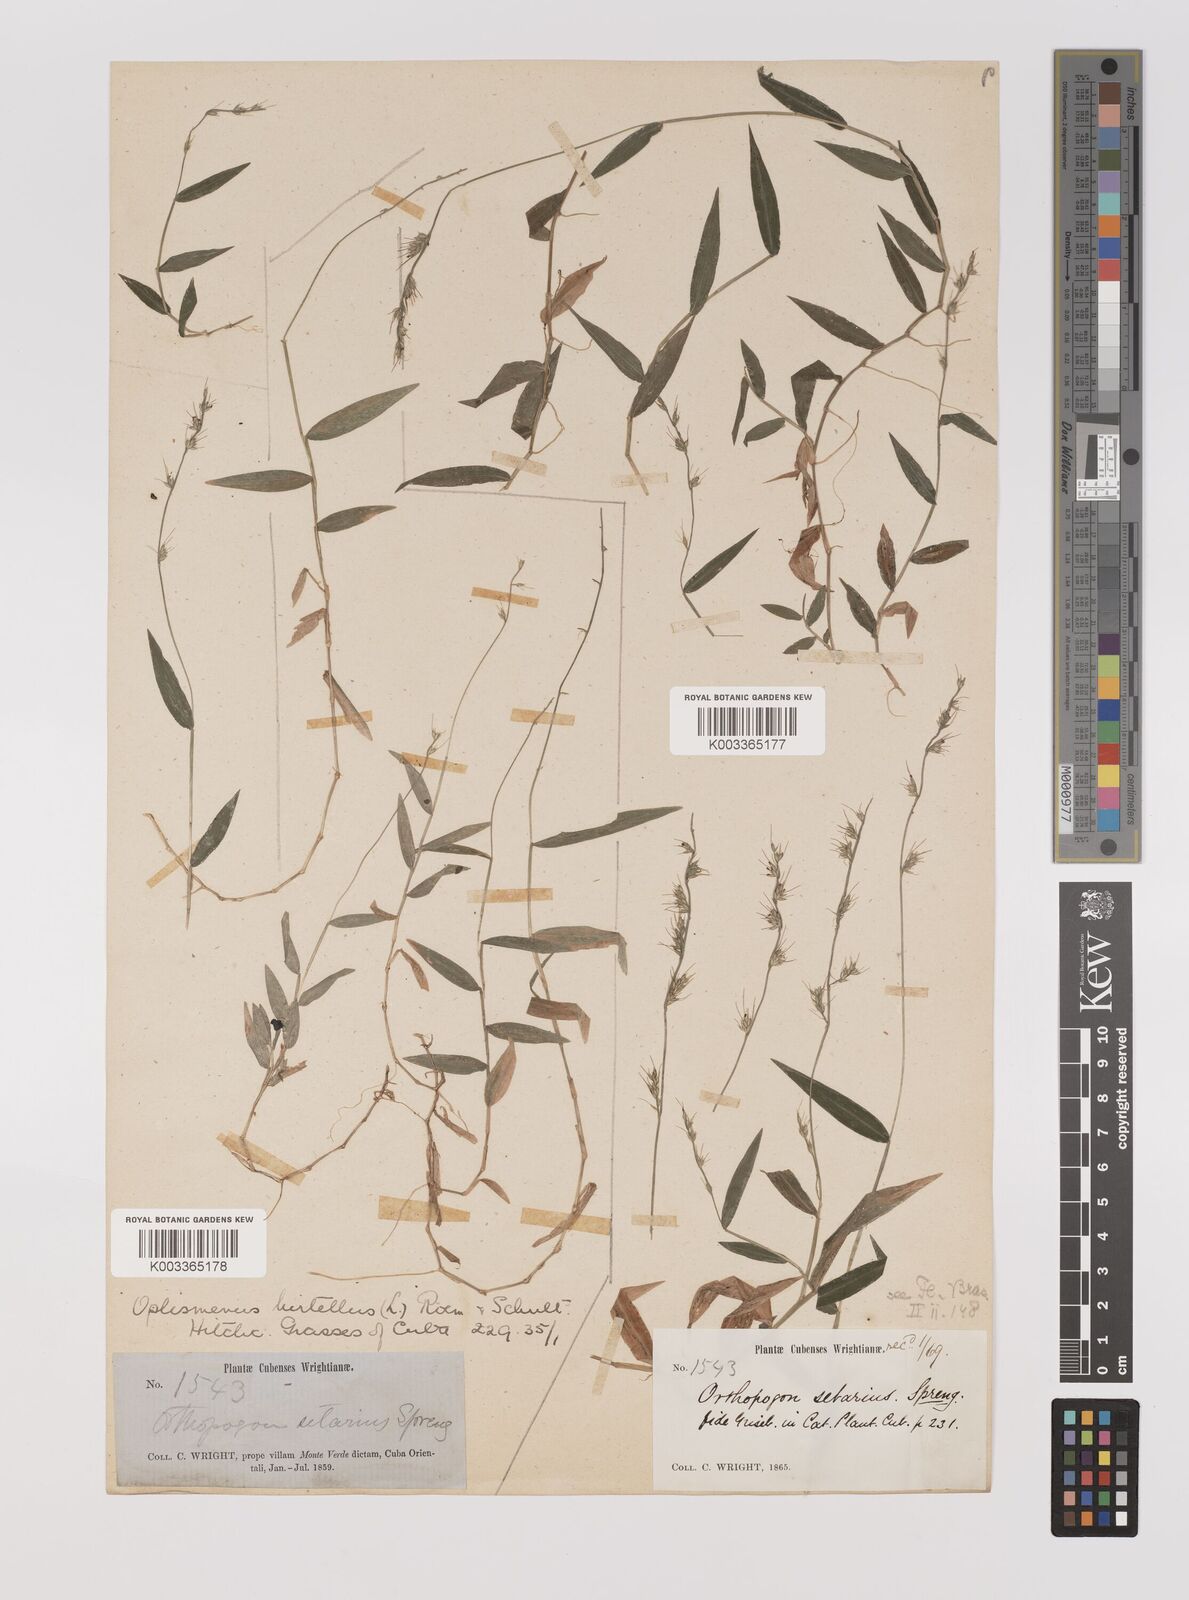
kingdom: Plantae
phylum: Tracheophyta
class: Liliopsida
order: Poales
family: Poaceae
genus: Oplismenus
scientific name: Oplismenus hirtellus
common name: Basketgrass
